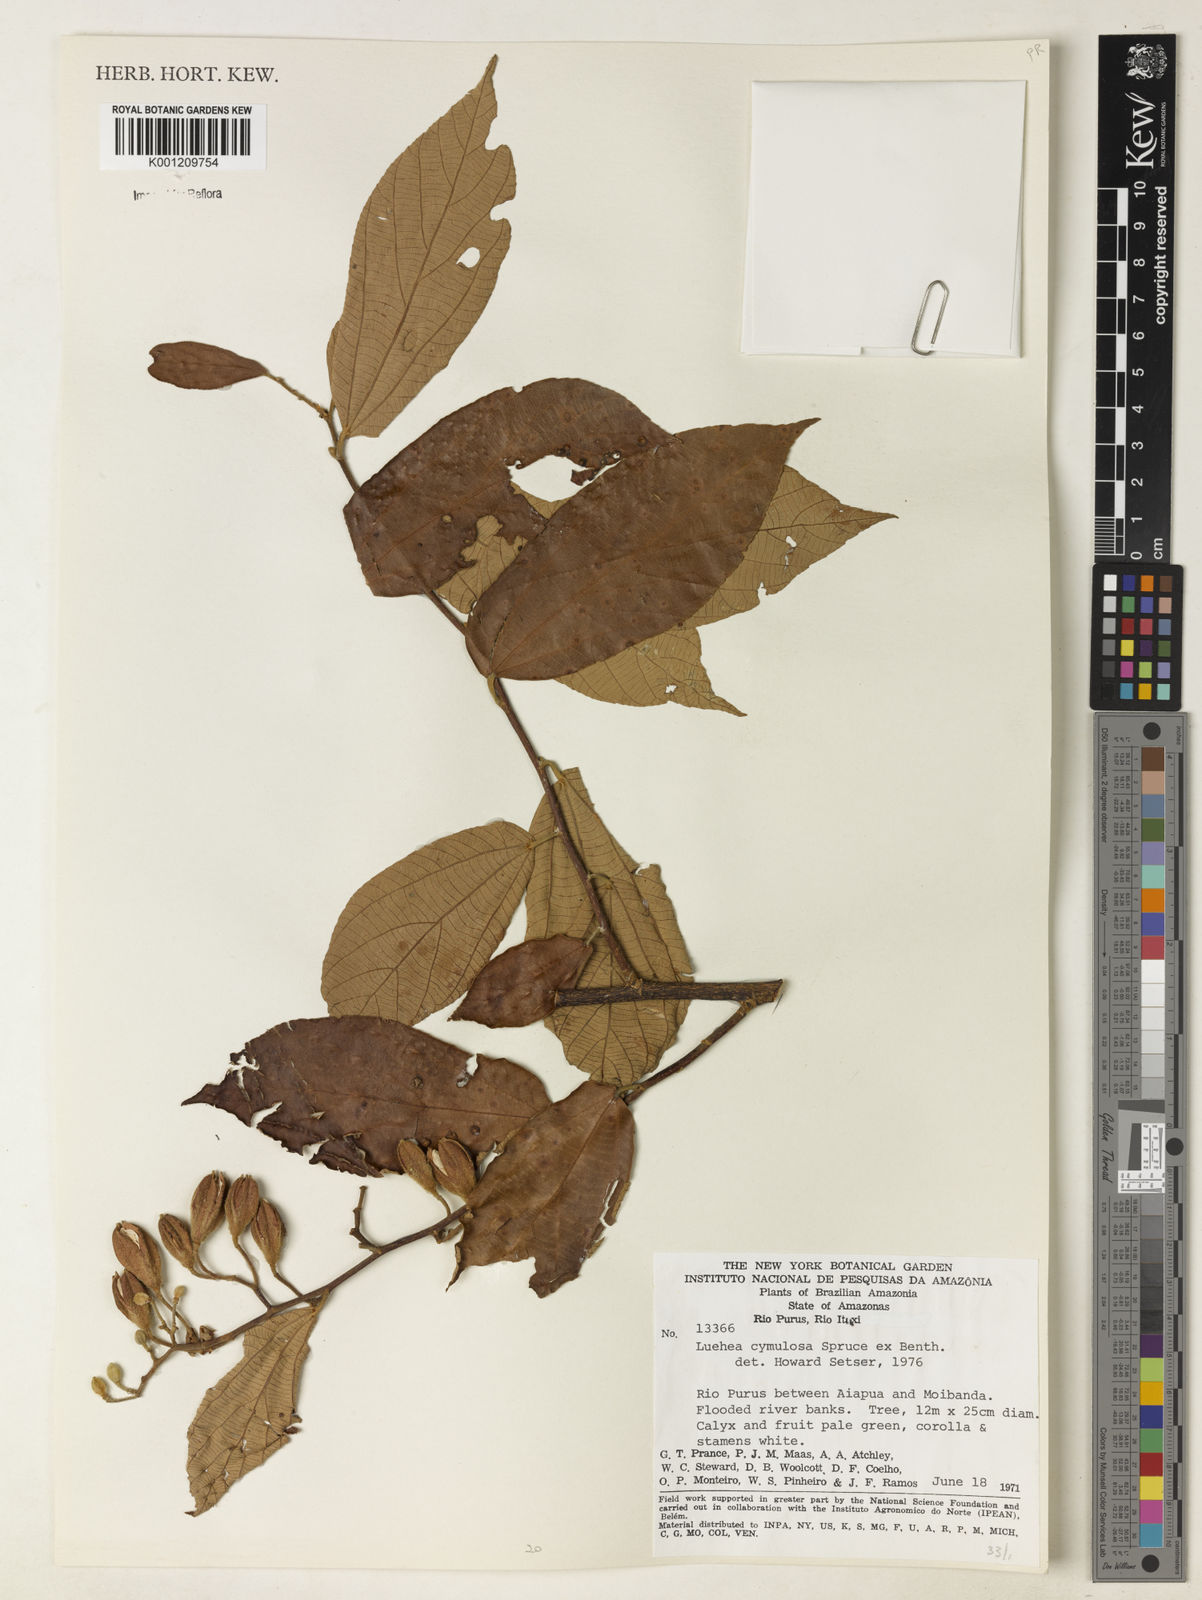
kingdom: Plantae
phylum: Tracheophyta
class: Magnoliopsida
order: Malvales
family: Malvaceae
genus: Luehea
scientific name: Luehea cymulosa
